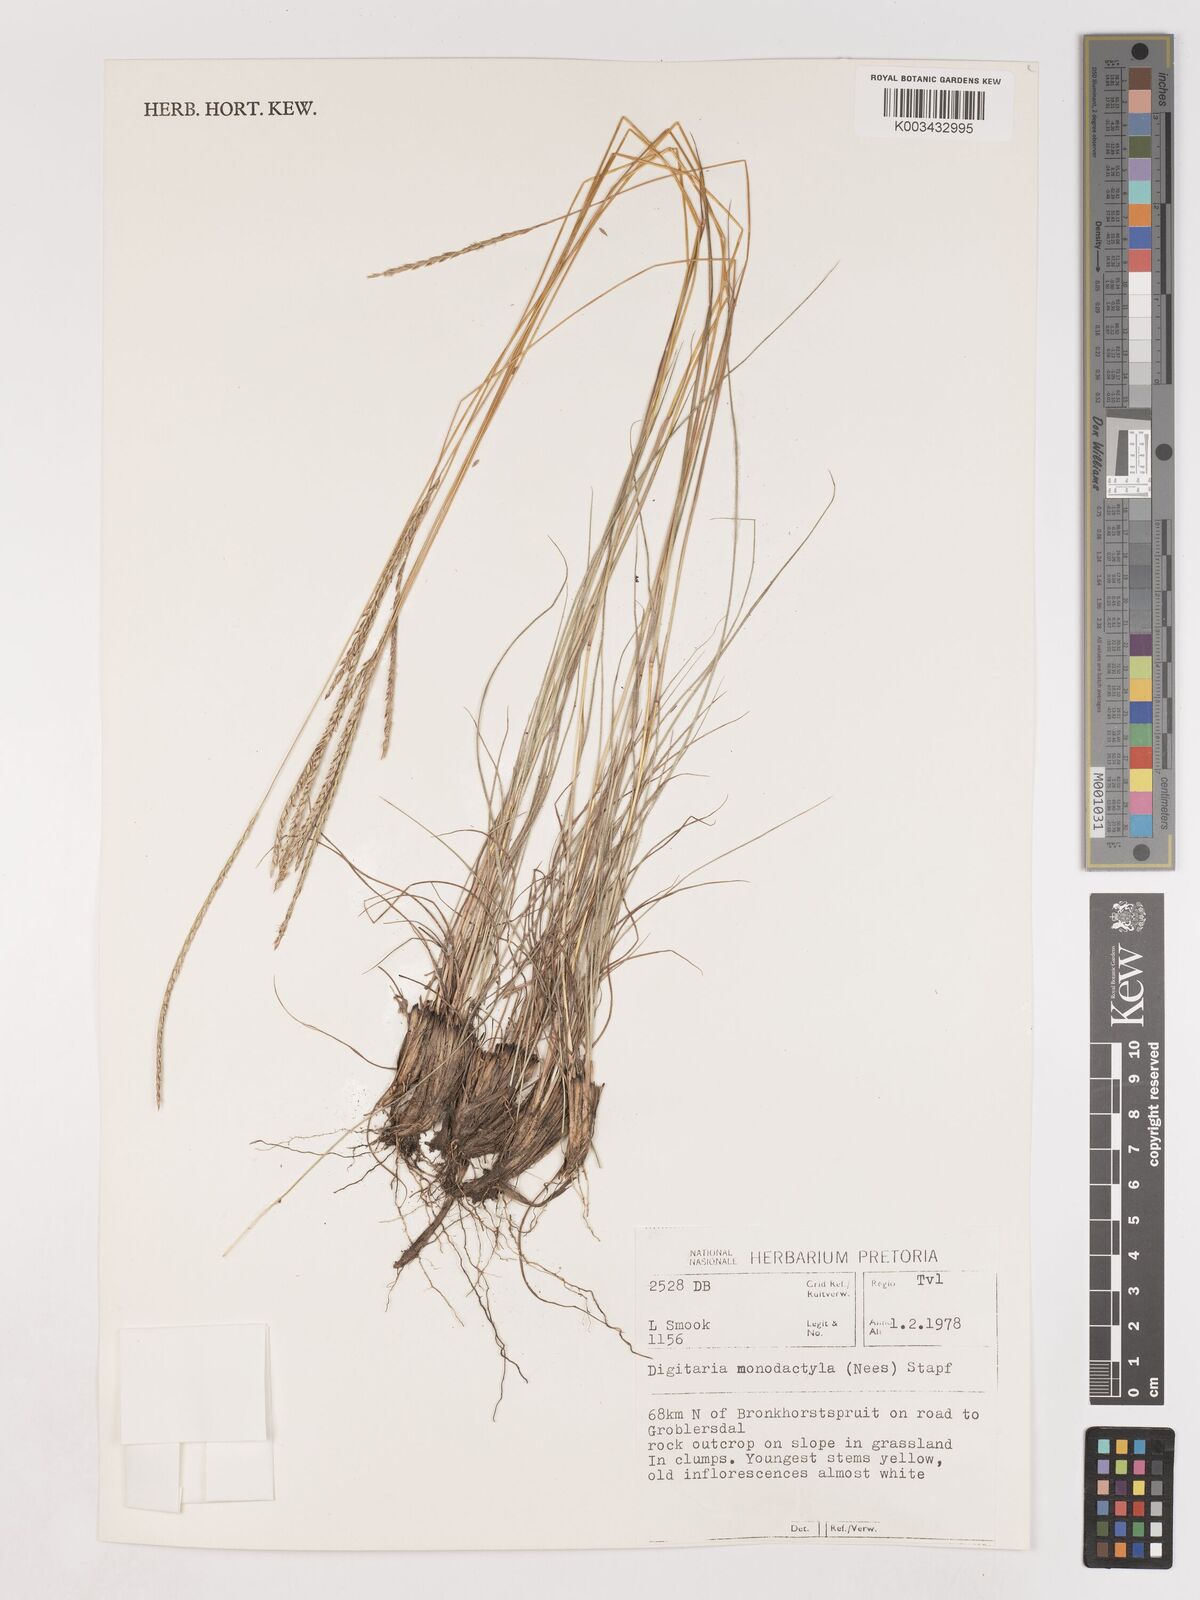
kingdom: Plantae
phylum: Tracheophyta
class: Liliopsida
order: Poales
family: Poaceae
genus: Digitaria
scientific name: Digitaria monodactyla
